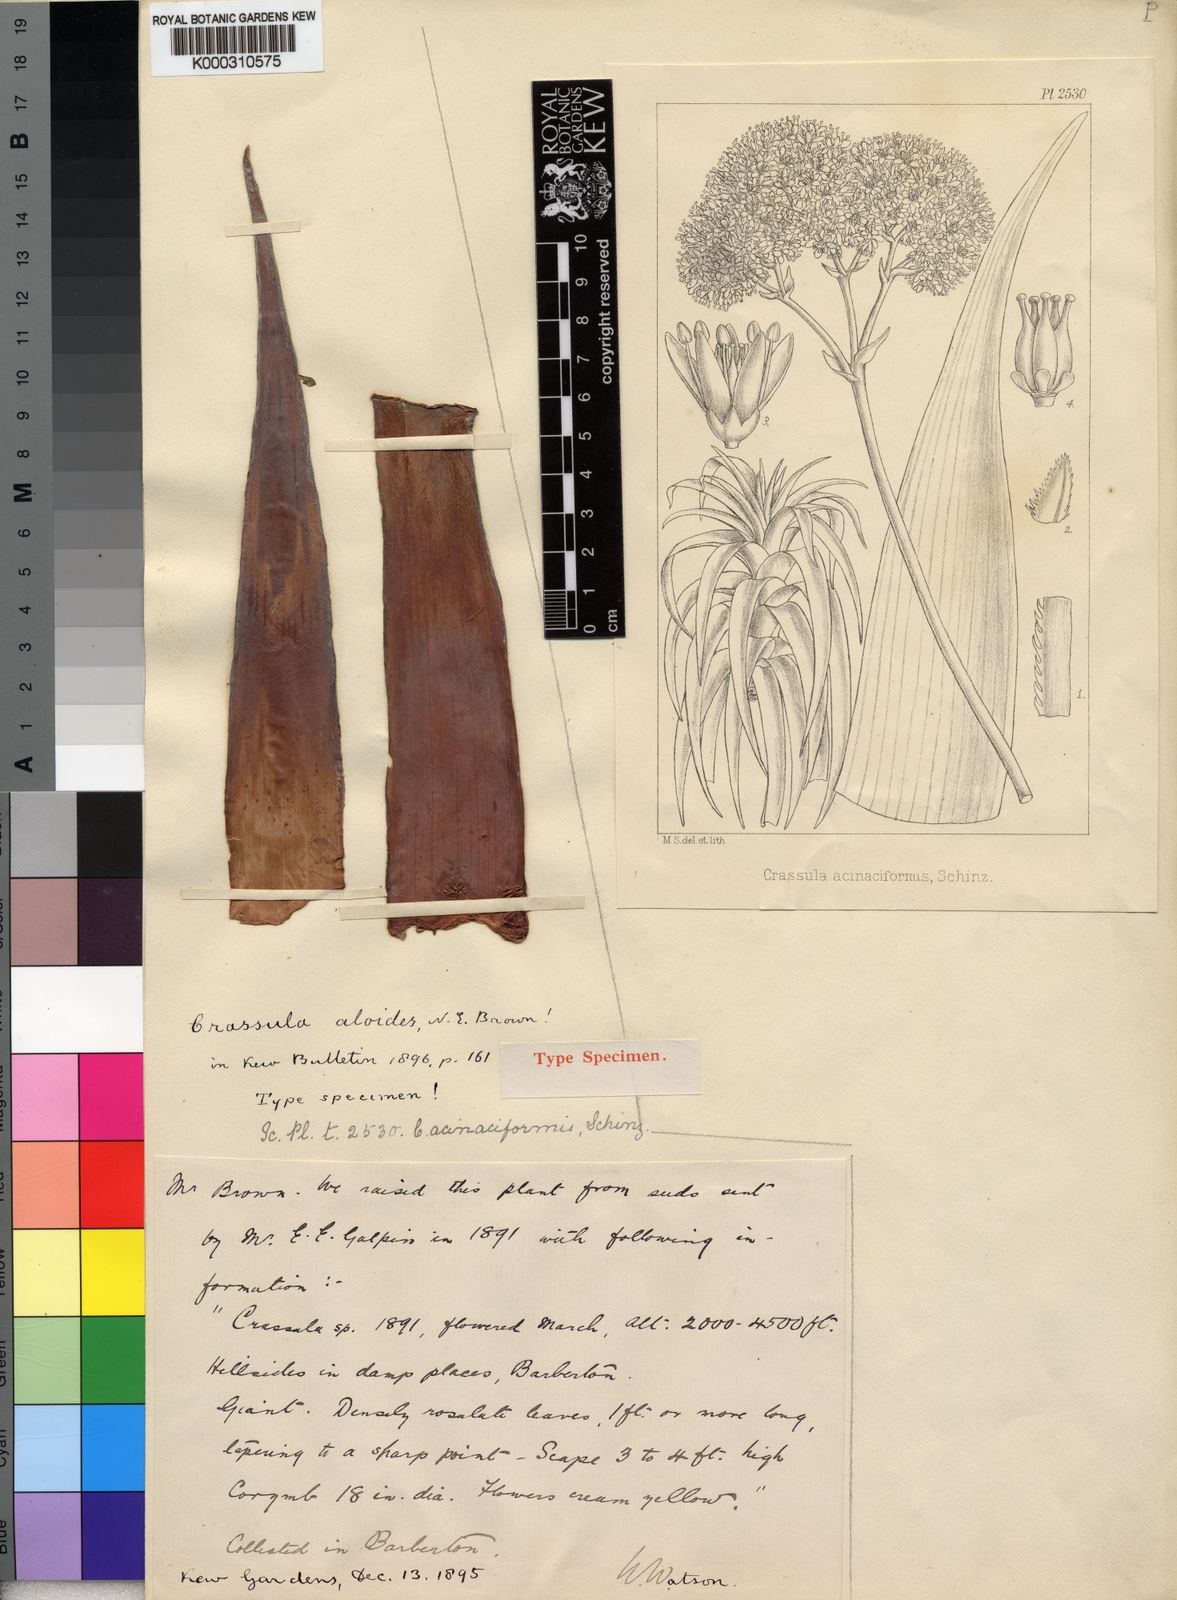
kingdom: Plantae
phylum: Tracheophyta
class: Magnoliopsida
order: Saxifragales
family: Crassulaceae
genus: Crassula
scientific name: Crassula acinaciformis
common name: Giant crassula
